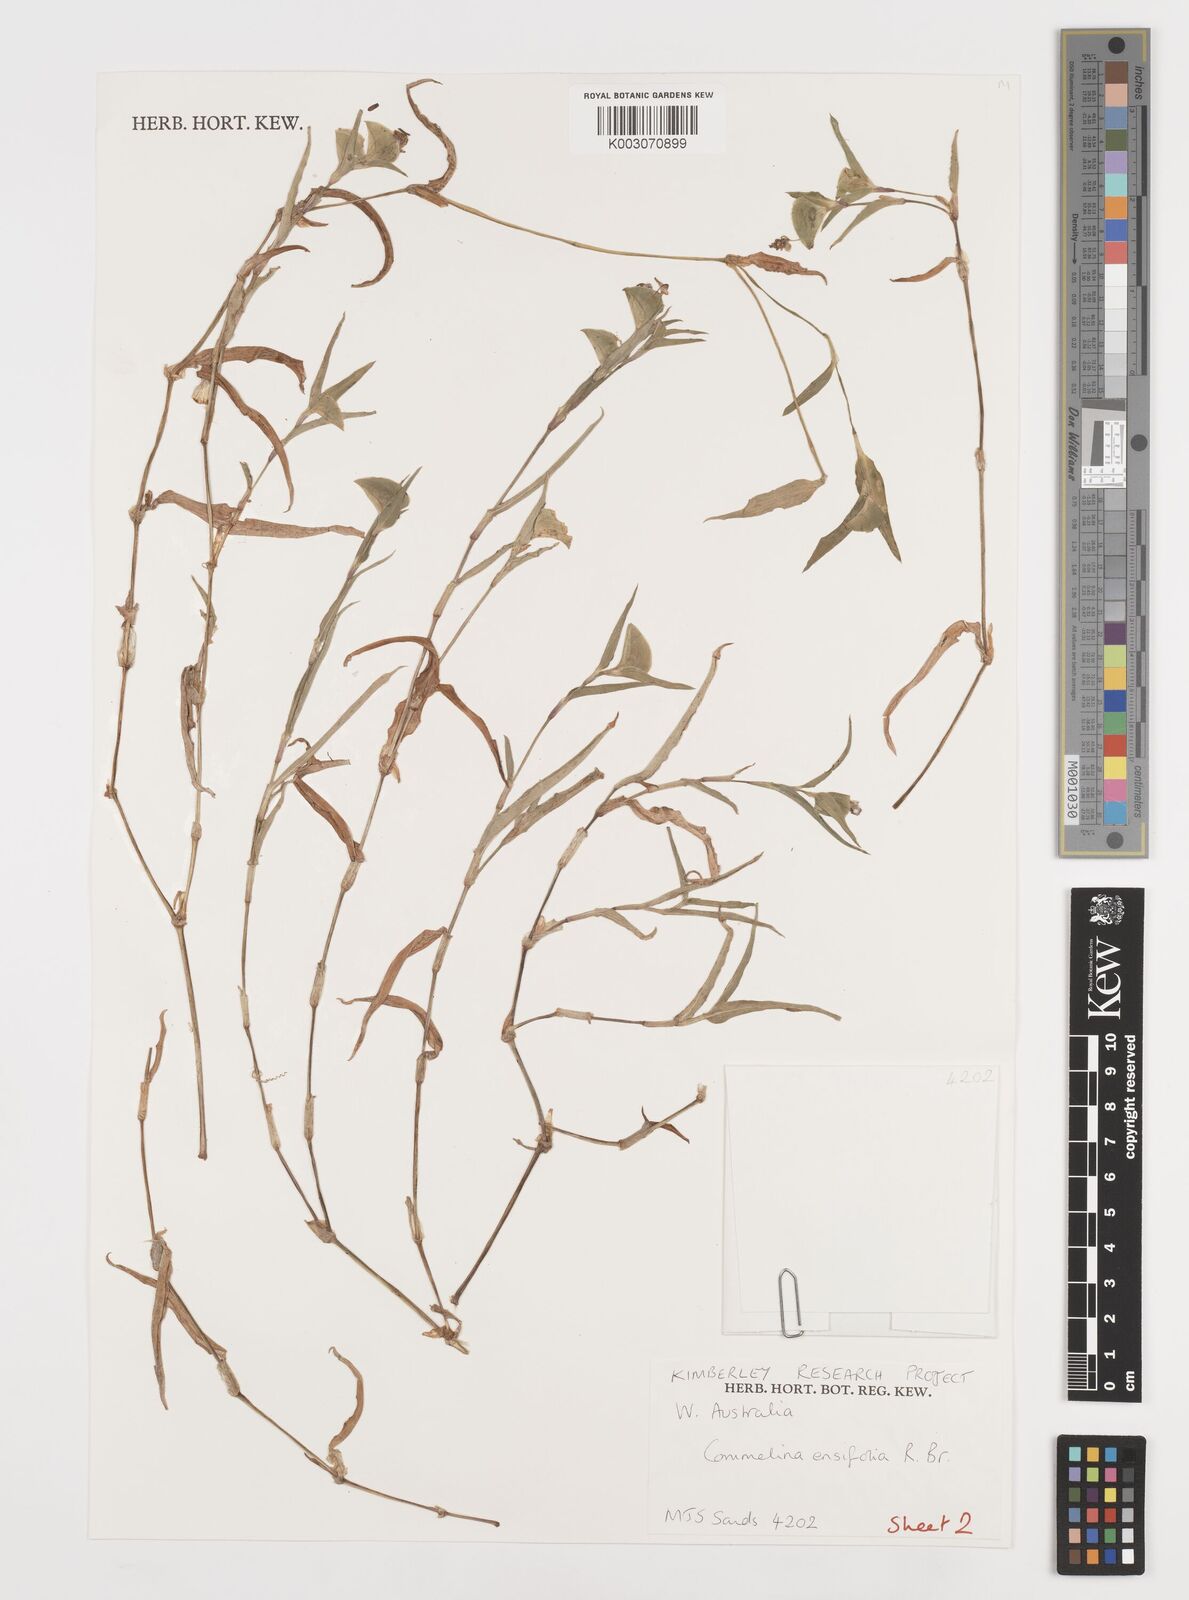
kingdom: Plantae
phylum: Tracheophyta
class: Liliopsida
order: Commelinales
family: Commelinaceae
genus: Commelina
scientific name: Commelina ensifolia
